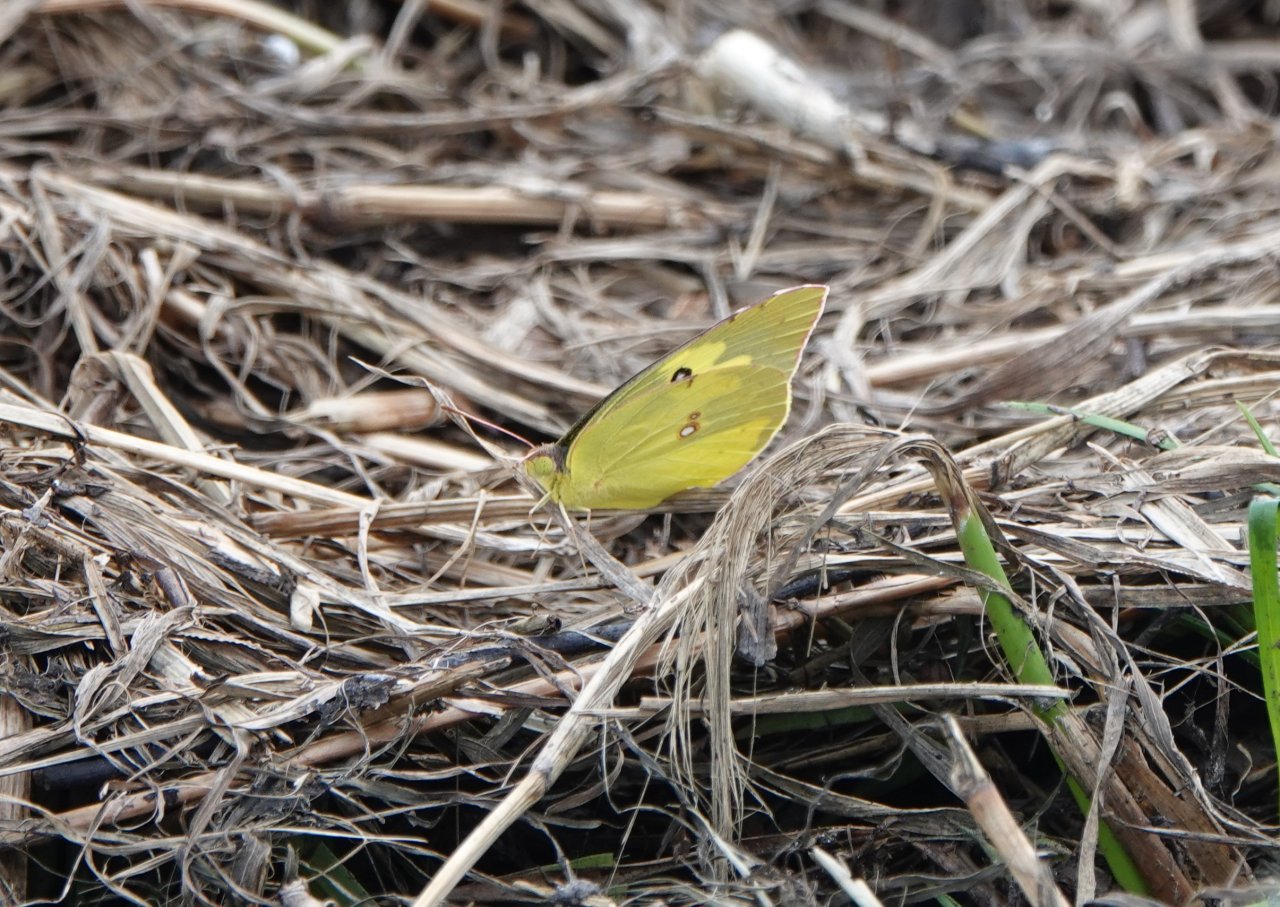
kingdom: Animalia
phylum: Arthropoda
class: Insecta
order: Lepidoptera
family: Pieridae
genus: Zerene
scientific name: Zerene cesonia
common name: Southern Dogface
